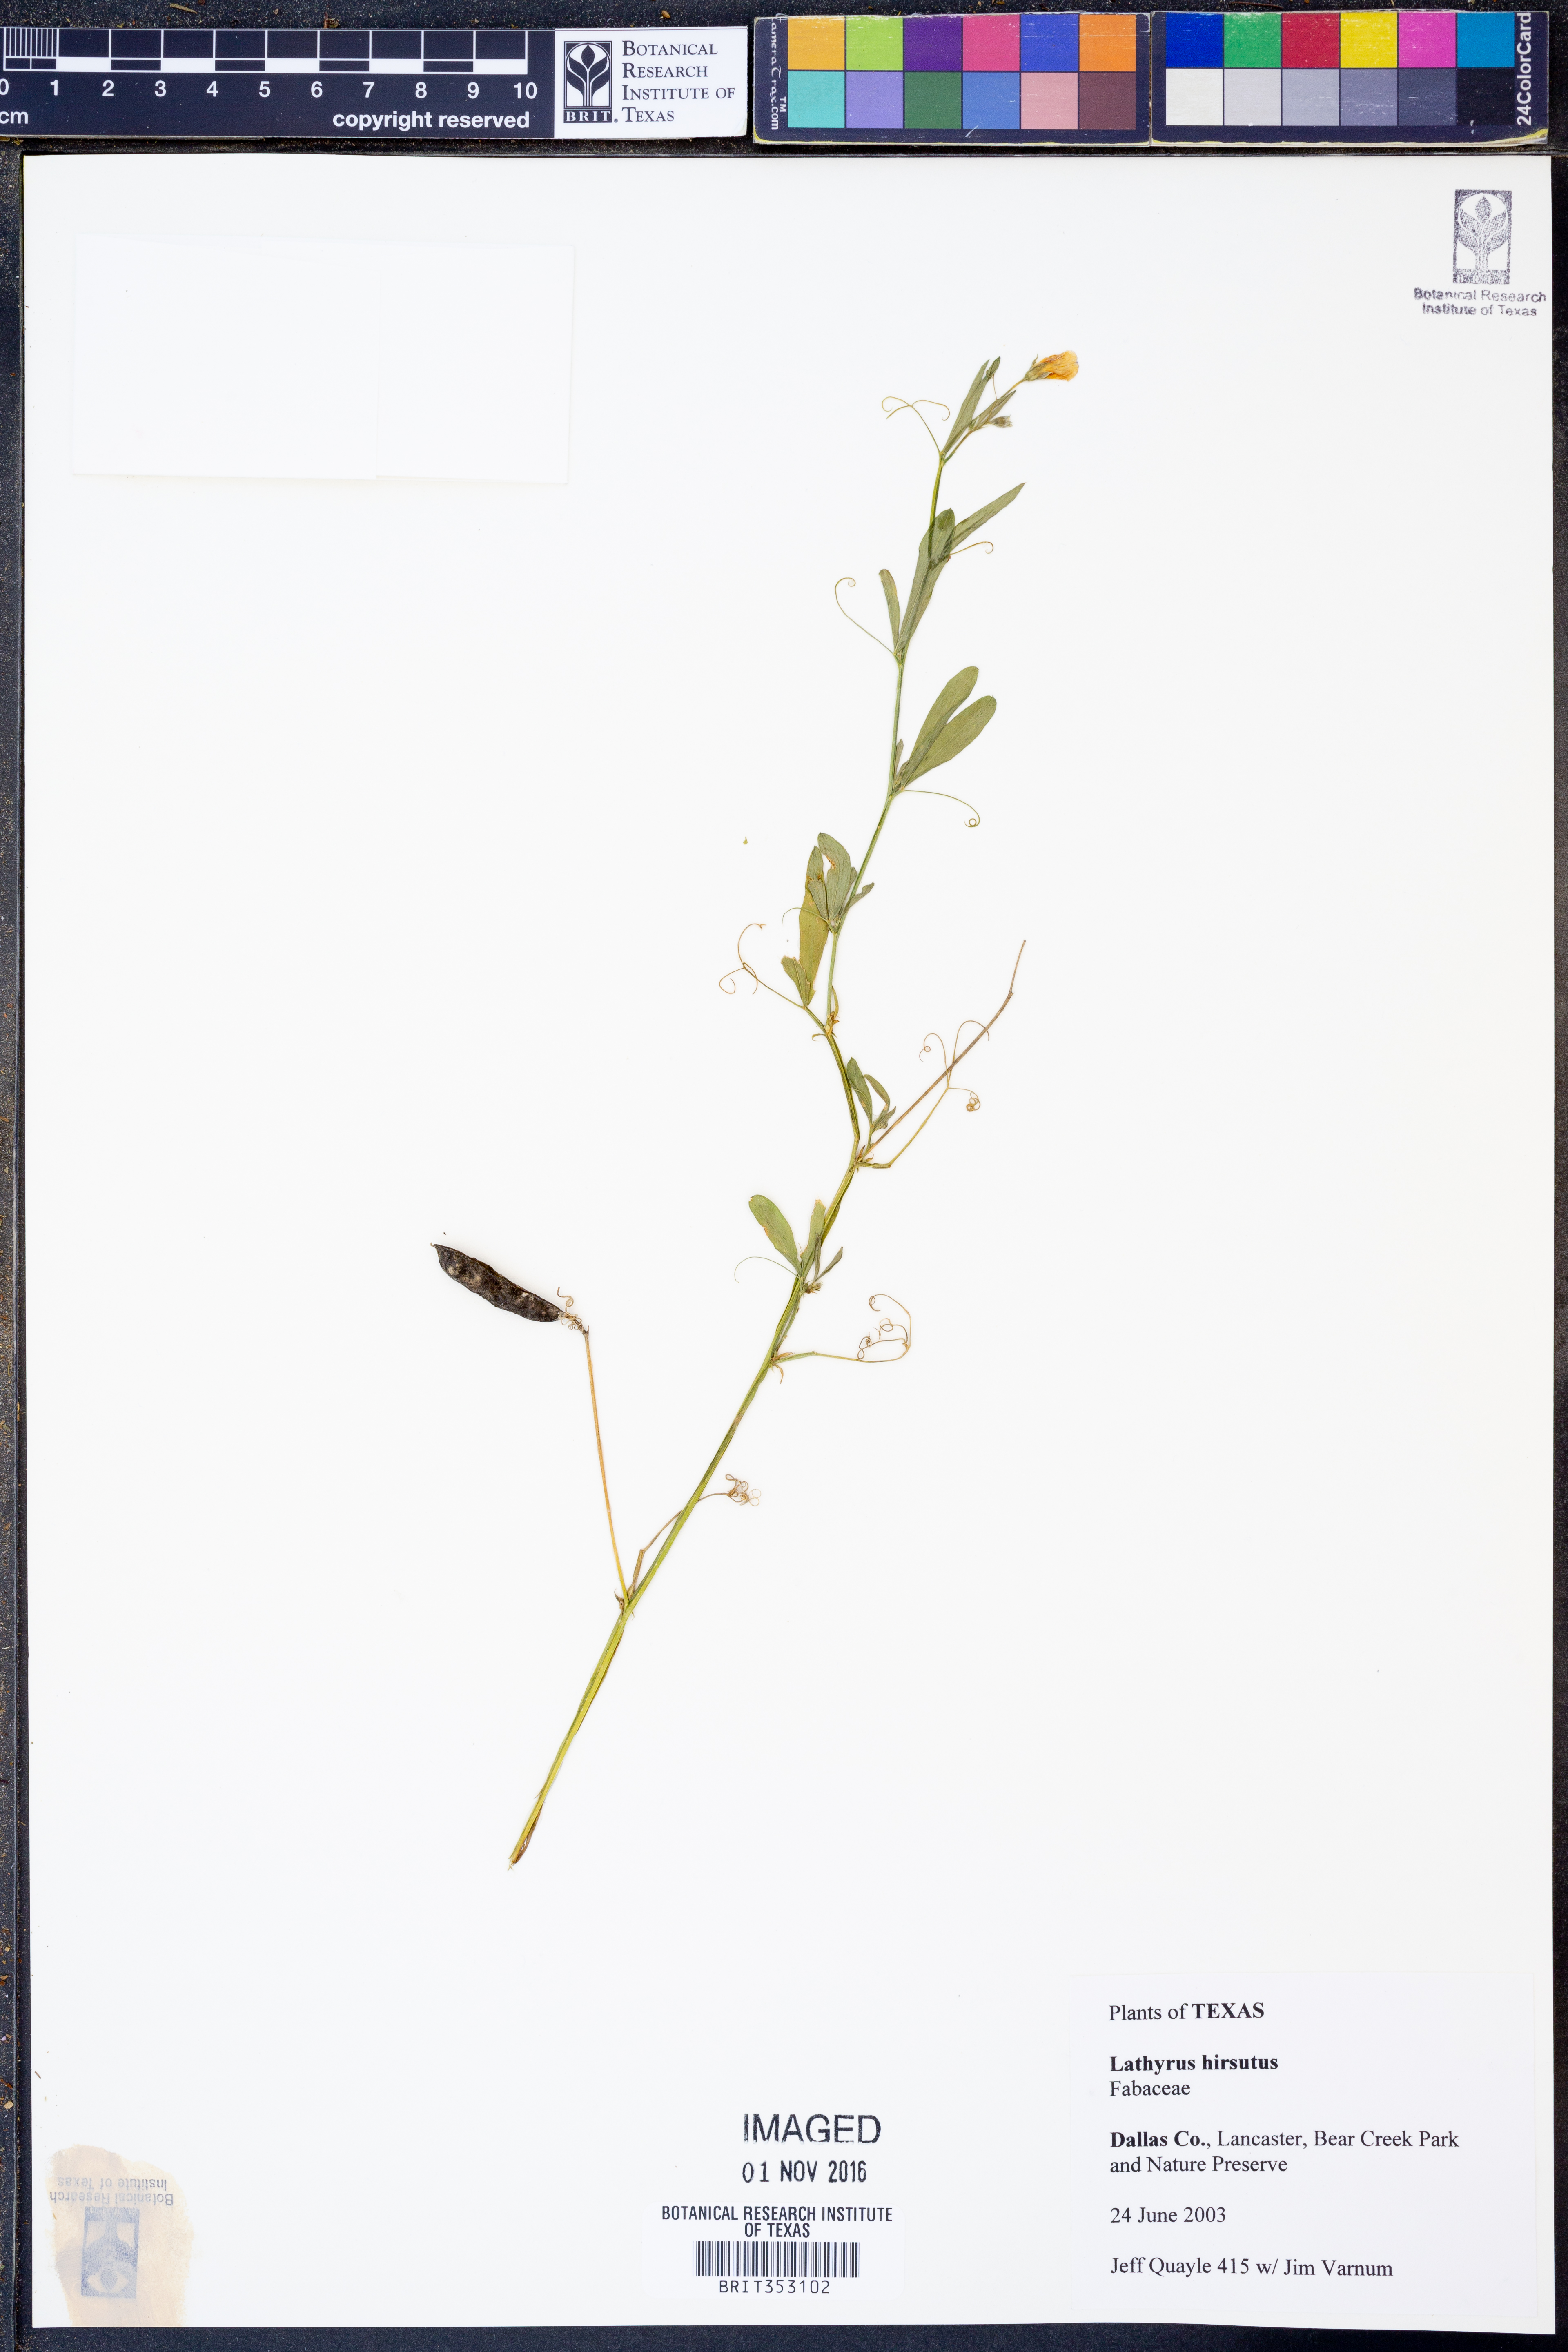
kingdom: Plantae
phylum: Tracheophyta
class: Magnoliopsida
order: Fabales
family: Fabaceae
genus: Lathyrus
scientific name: Lathyrus hirsutus
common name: Hairy vetchling
